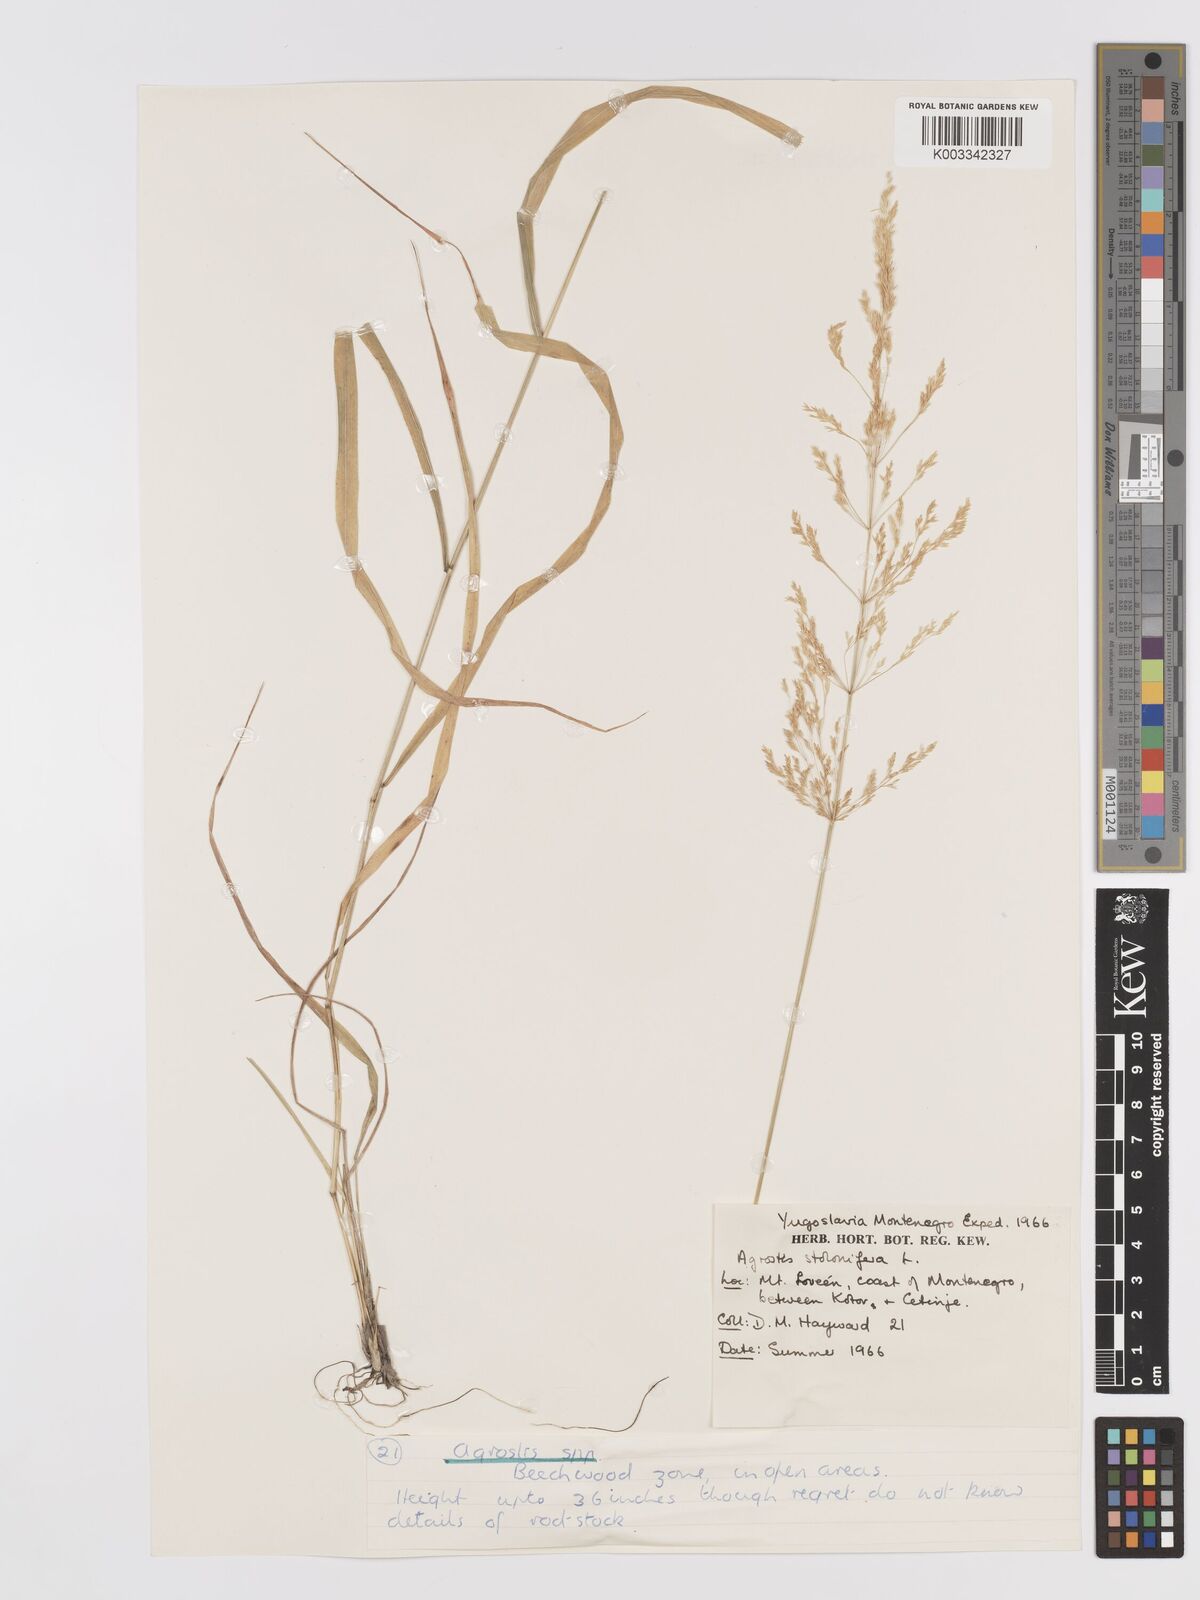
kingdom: Plantae
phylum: Tracheophyta
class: Liliopsida
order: Poales
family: Poaceae
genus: Agrostis
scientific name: Agrostis gigantea
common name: Black bent
